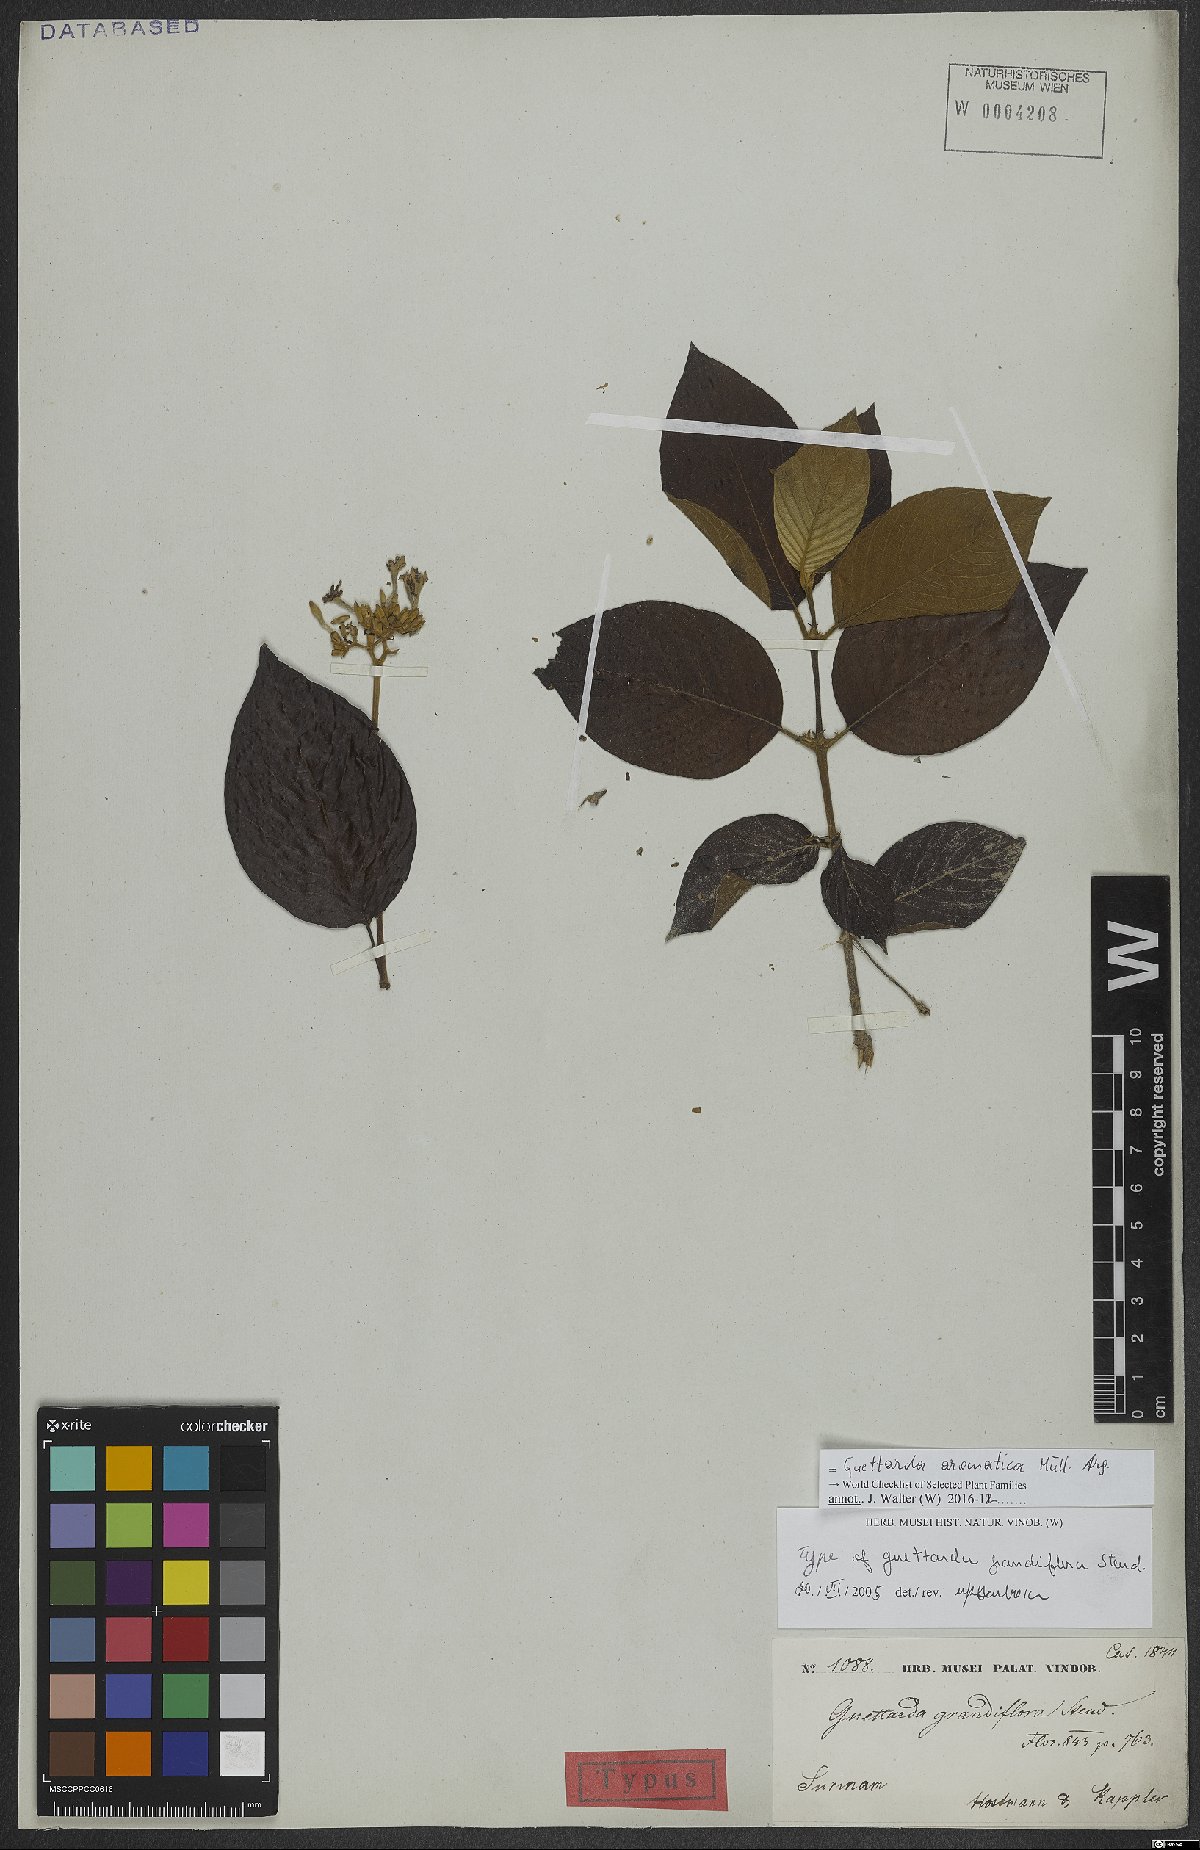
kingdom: Plantae
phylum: Tracheophyta
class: Magnoliopsida
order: Gentianales
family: Rubiaceae
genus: Guettarda
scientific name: Guettarda aromatica
